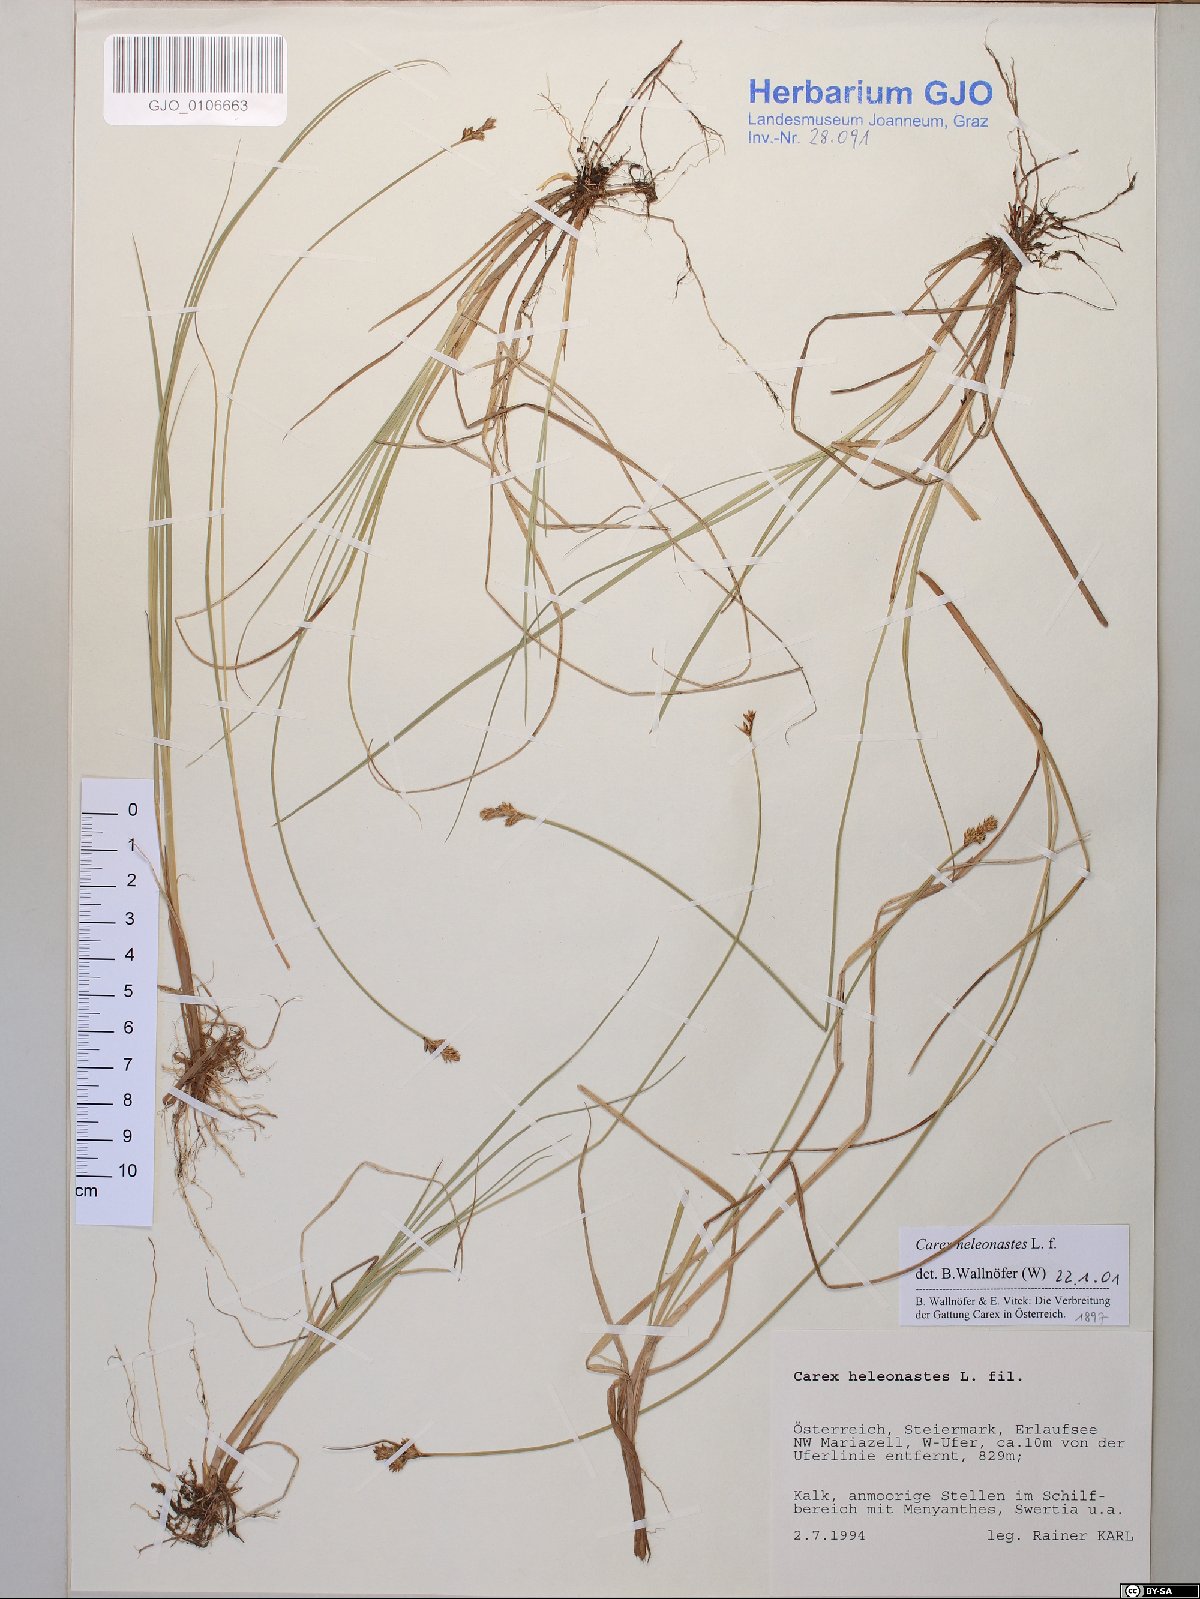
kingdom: Plantae
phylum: Tracheophyta
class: Liliopsida
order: Poales
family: Cyperaceae
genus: Carex
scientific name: Carex heleonastes
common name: Hudson bay sedge
